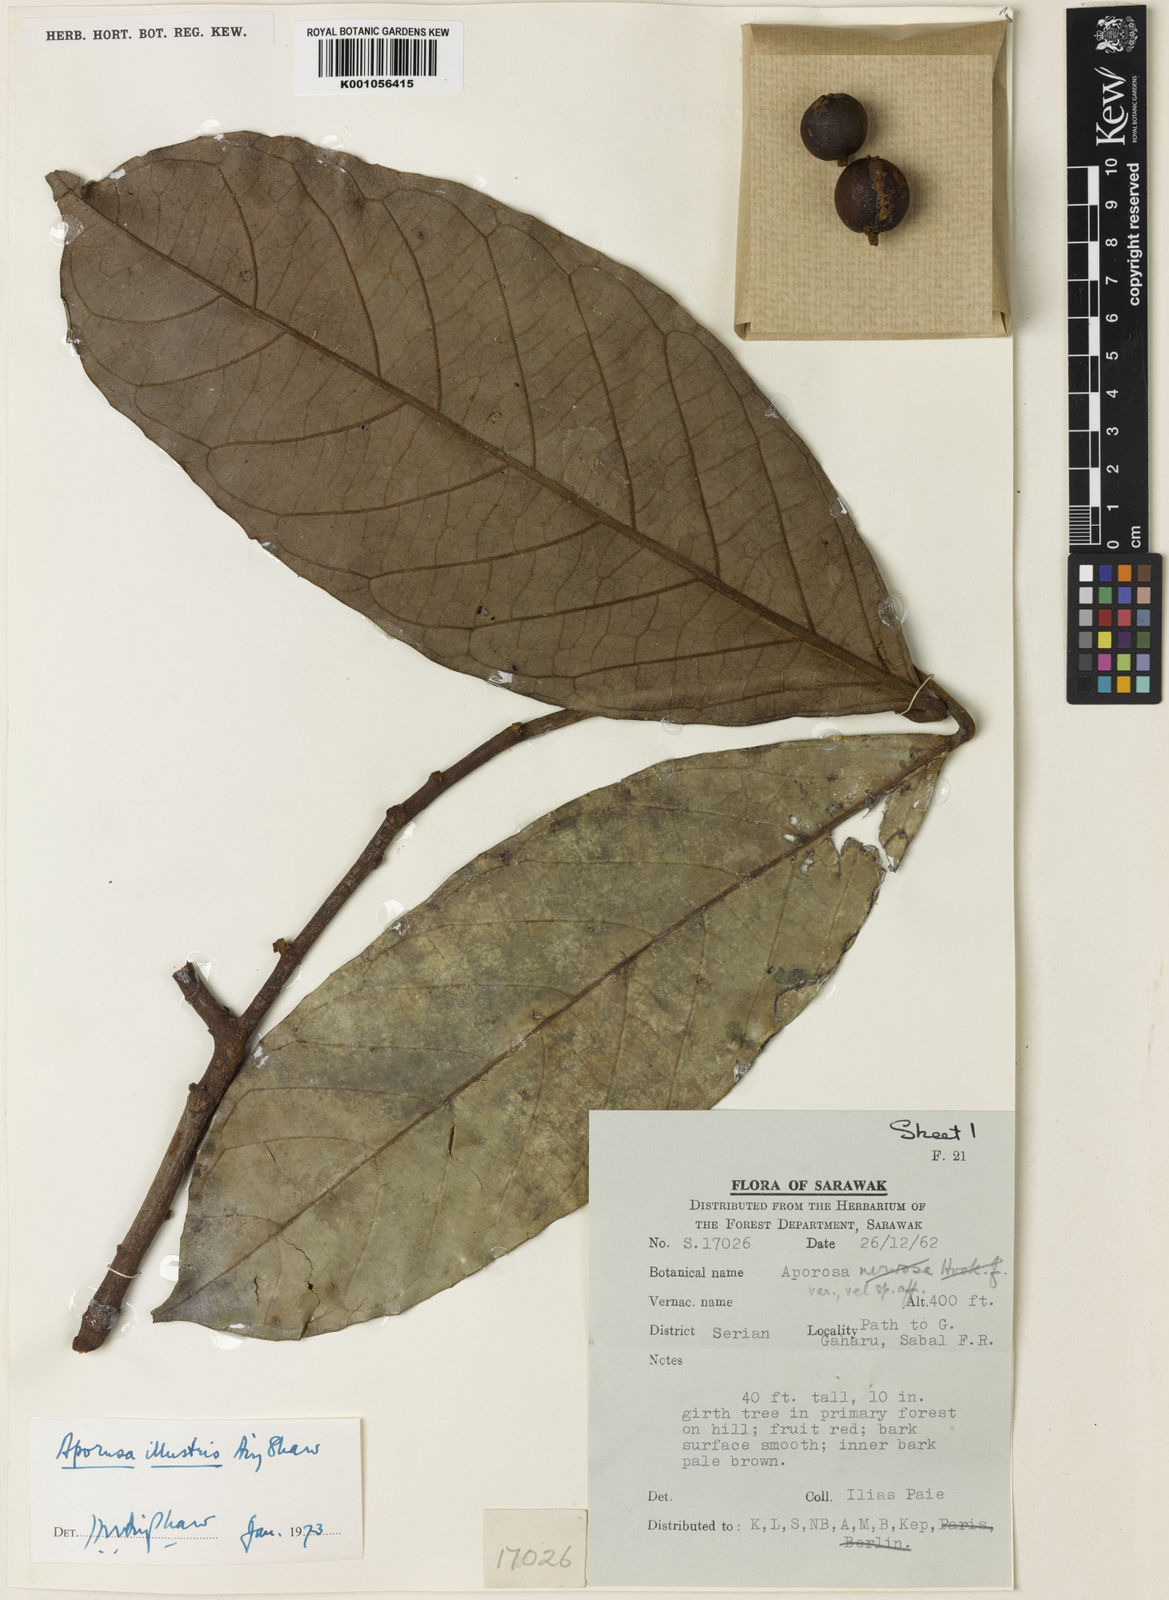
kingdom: Plantae
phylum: Tracheophyta
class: Magnoliopsida
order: Malpighiales
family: Phyllanthaceae
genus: Aporosa
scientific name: Aporosa illustris
